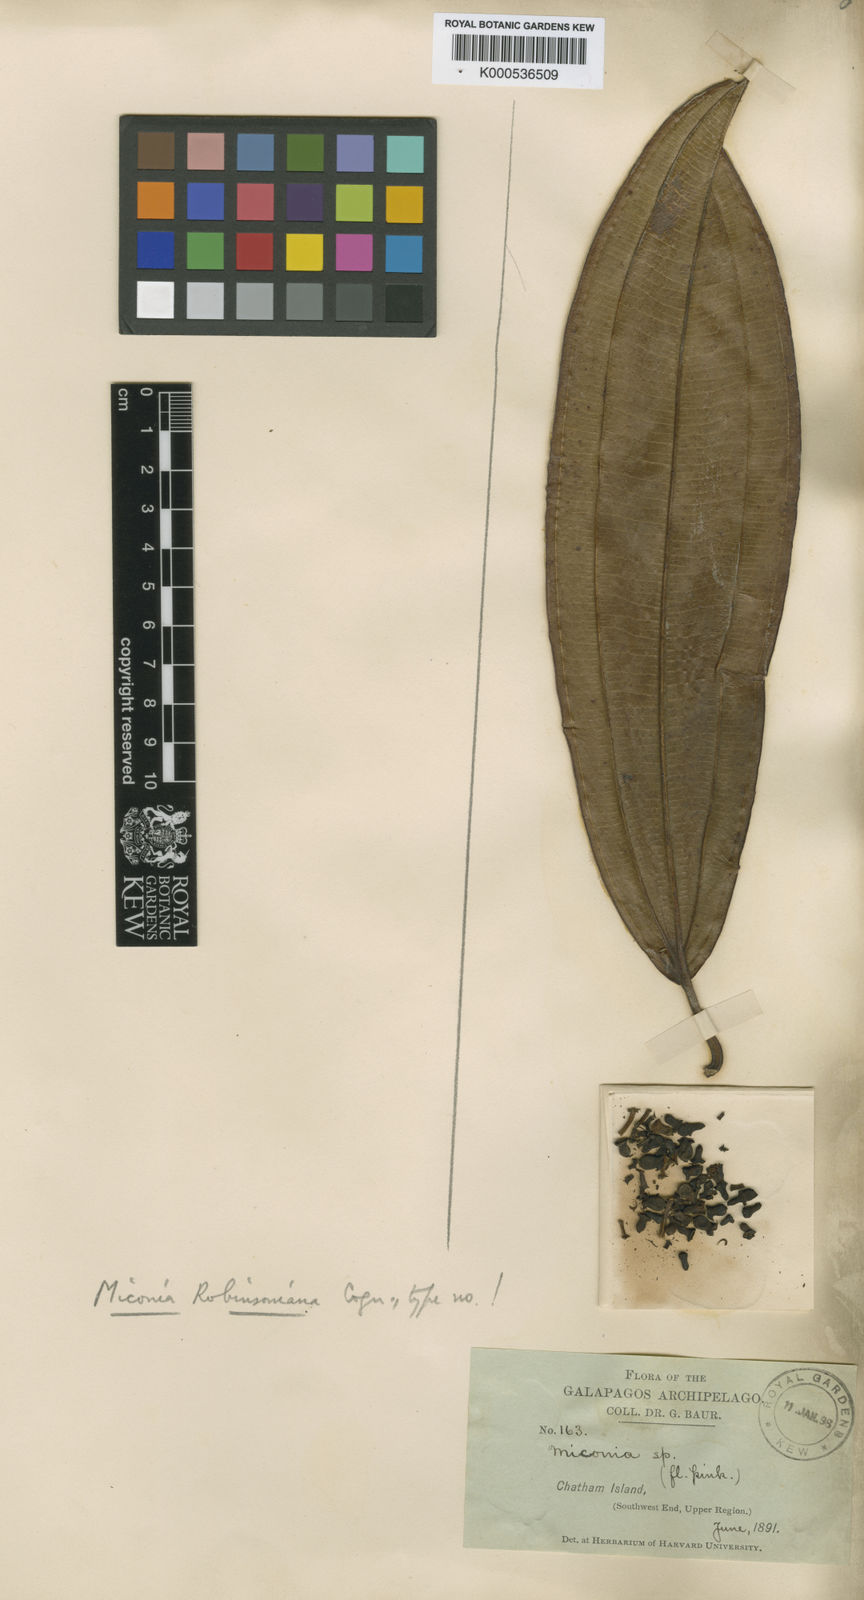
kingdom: Plantae
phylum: Tracheophyta
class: Magnoliopsida
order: Myrtales
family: Melastomataceae
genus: Miconia
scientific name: Miconia robinsoniana
